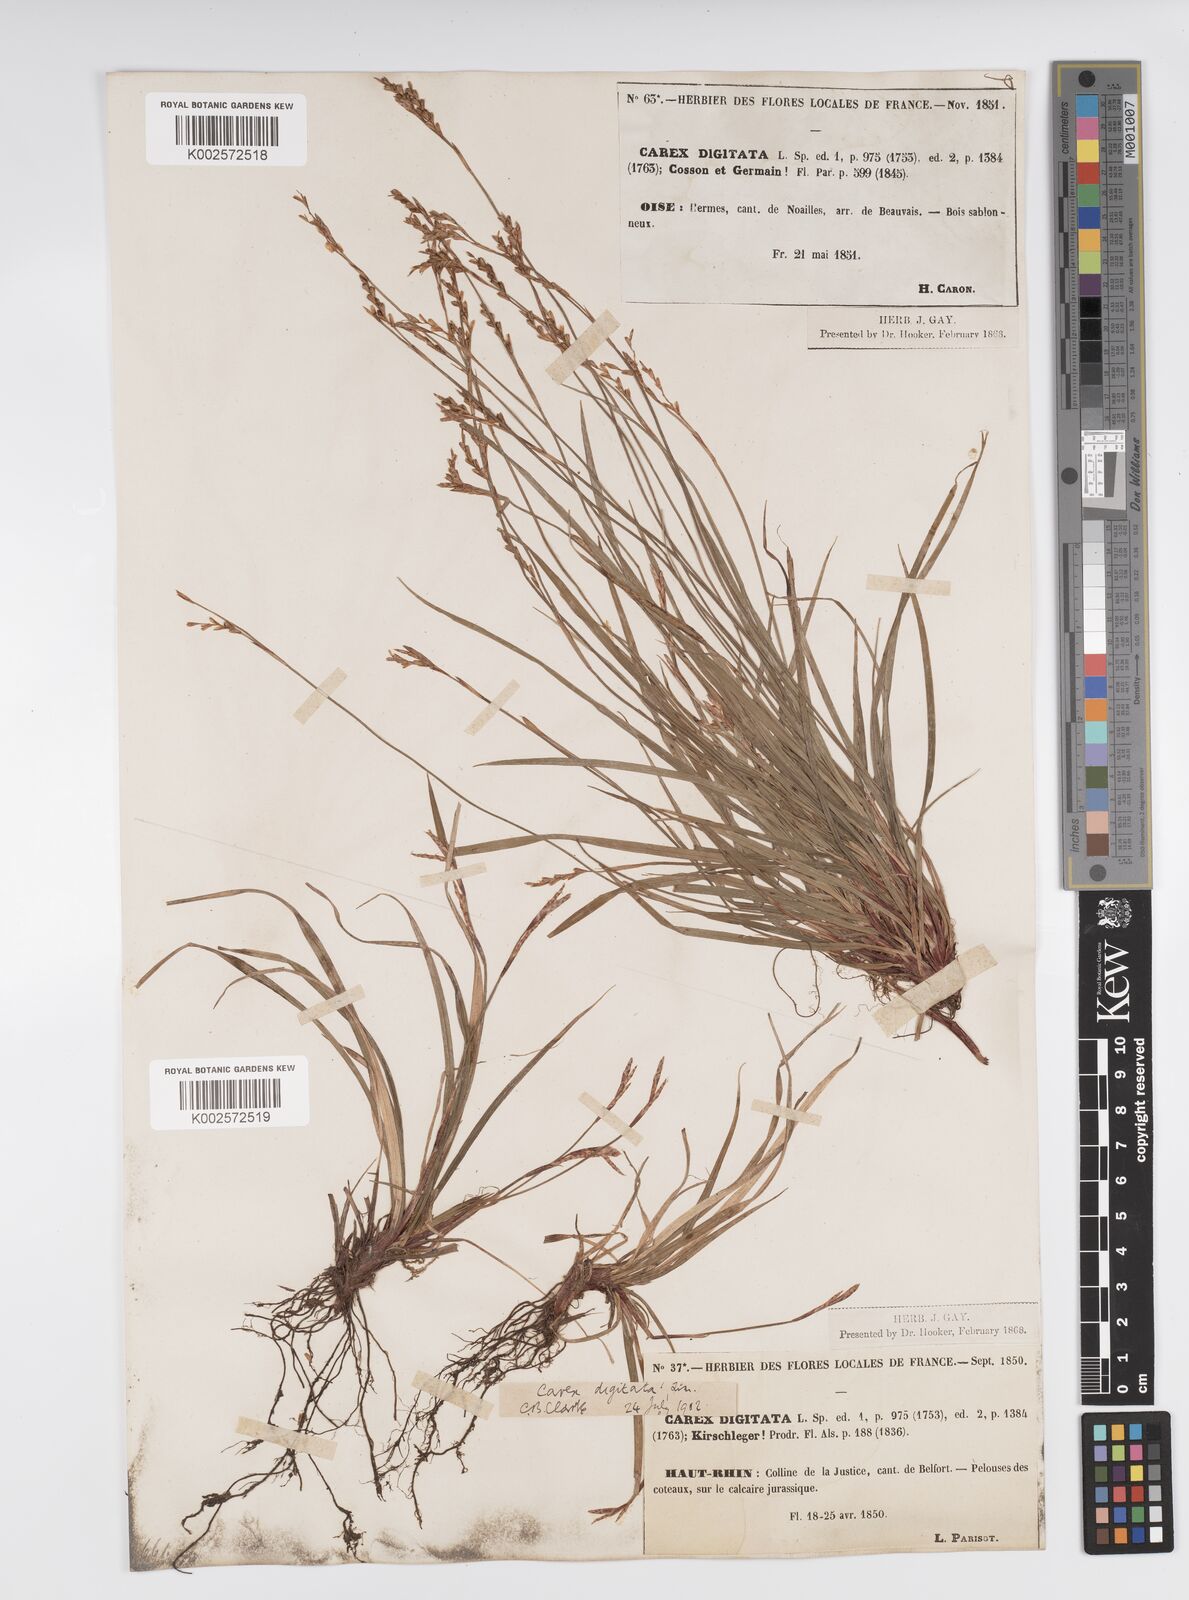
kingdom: Plantae
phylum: Tracheophyta
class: Liliopsida
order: Poales
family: Cyperaceae
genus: Carex
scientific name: Carex digitata
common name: Fingered sedge
